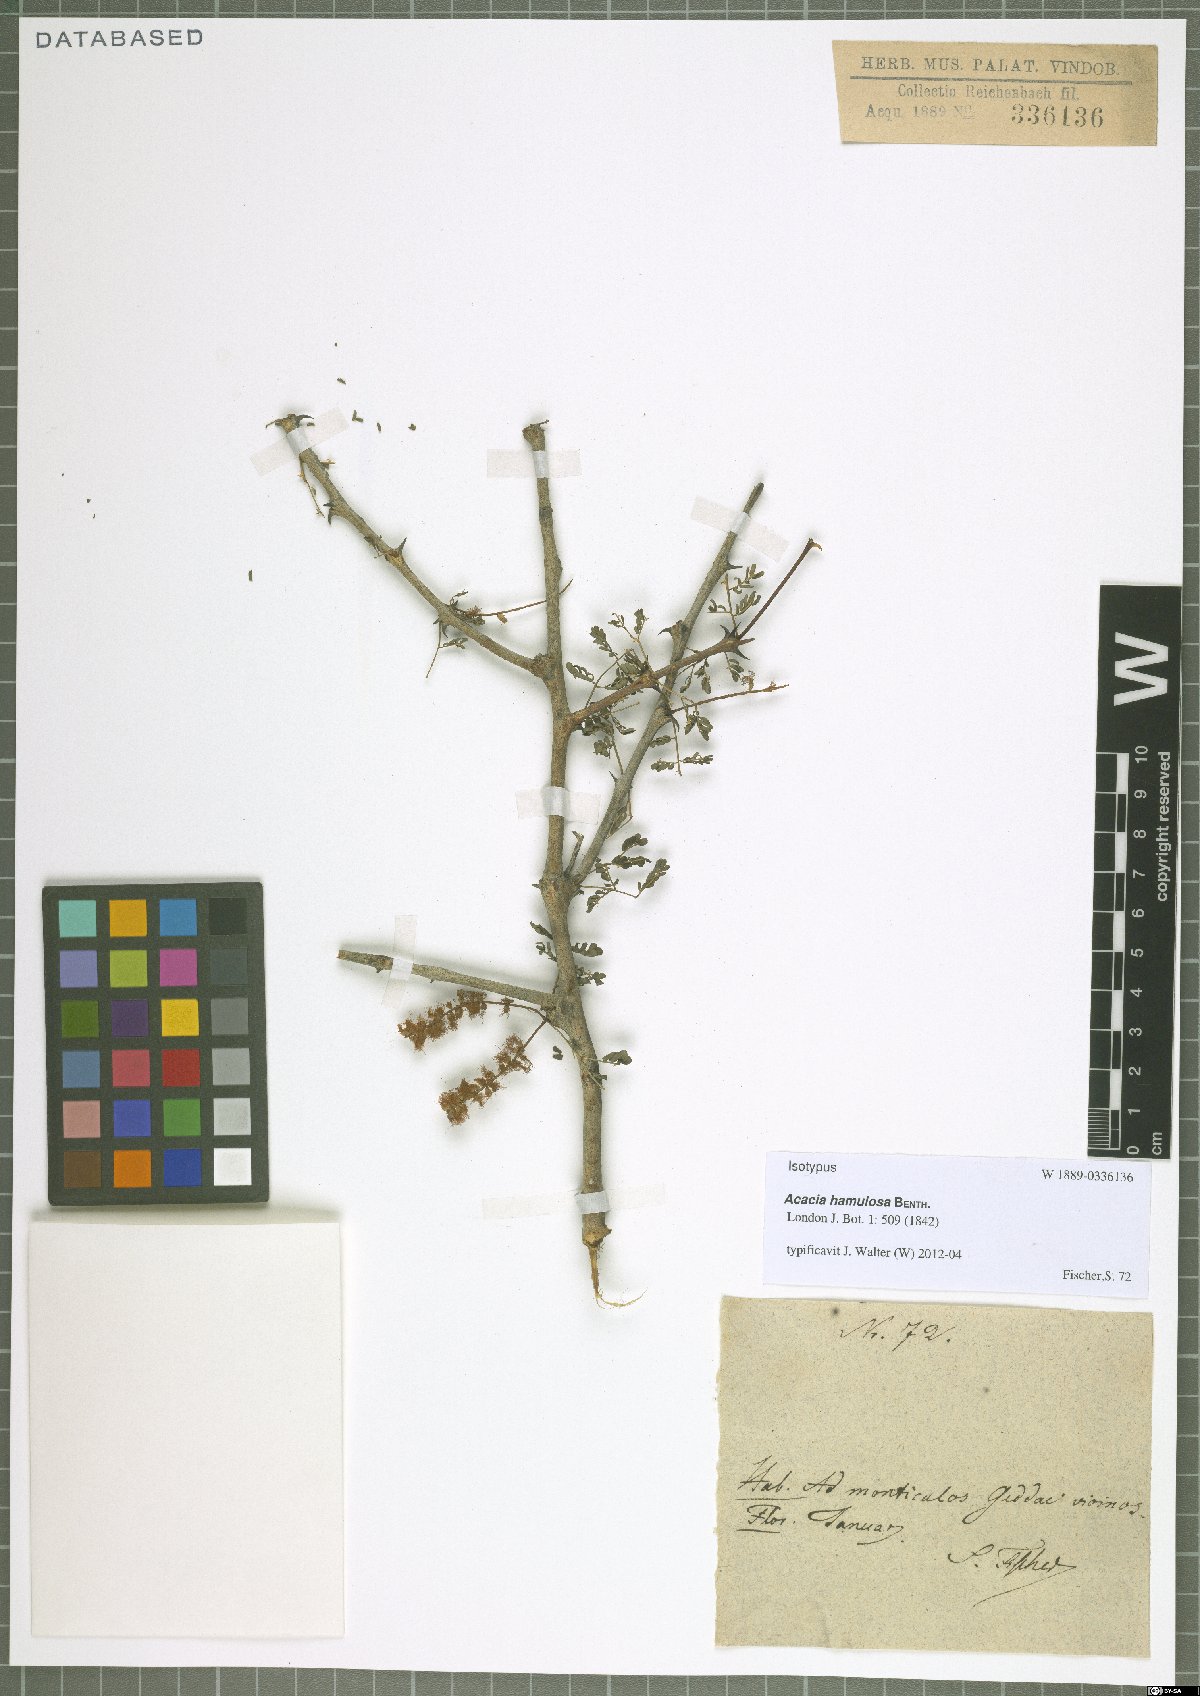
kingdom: Plantae
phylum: Tracheophyta
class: Magnoliopsida
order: Fabales
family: Fabaceae
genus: Senegalia
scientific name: Senegalia hamulosa
